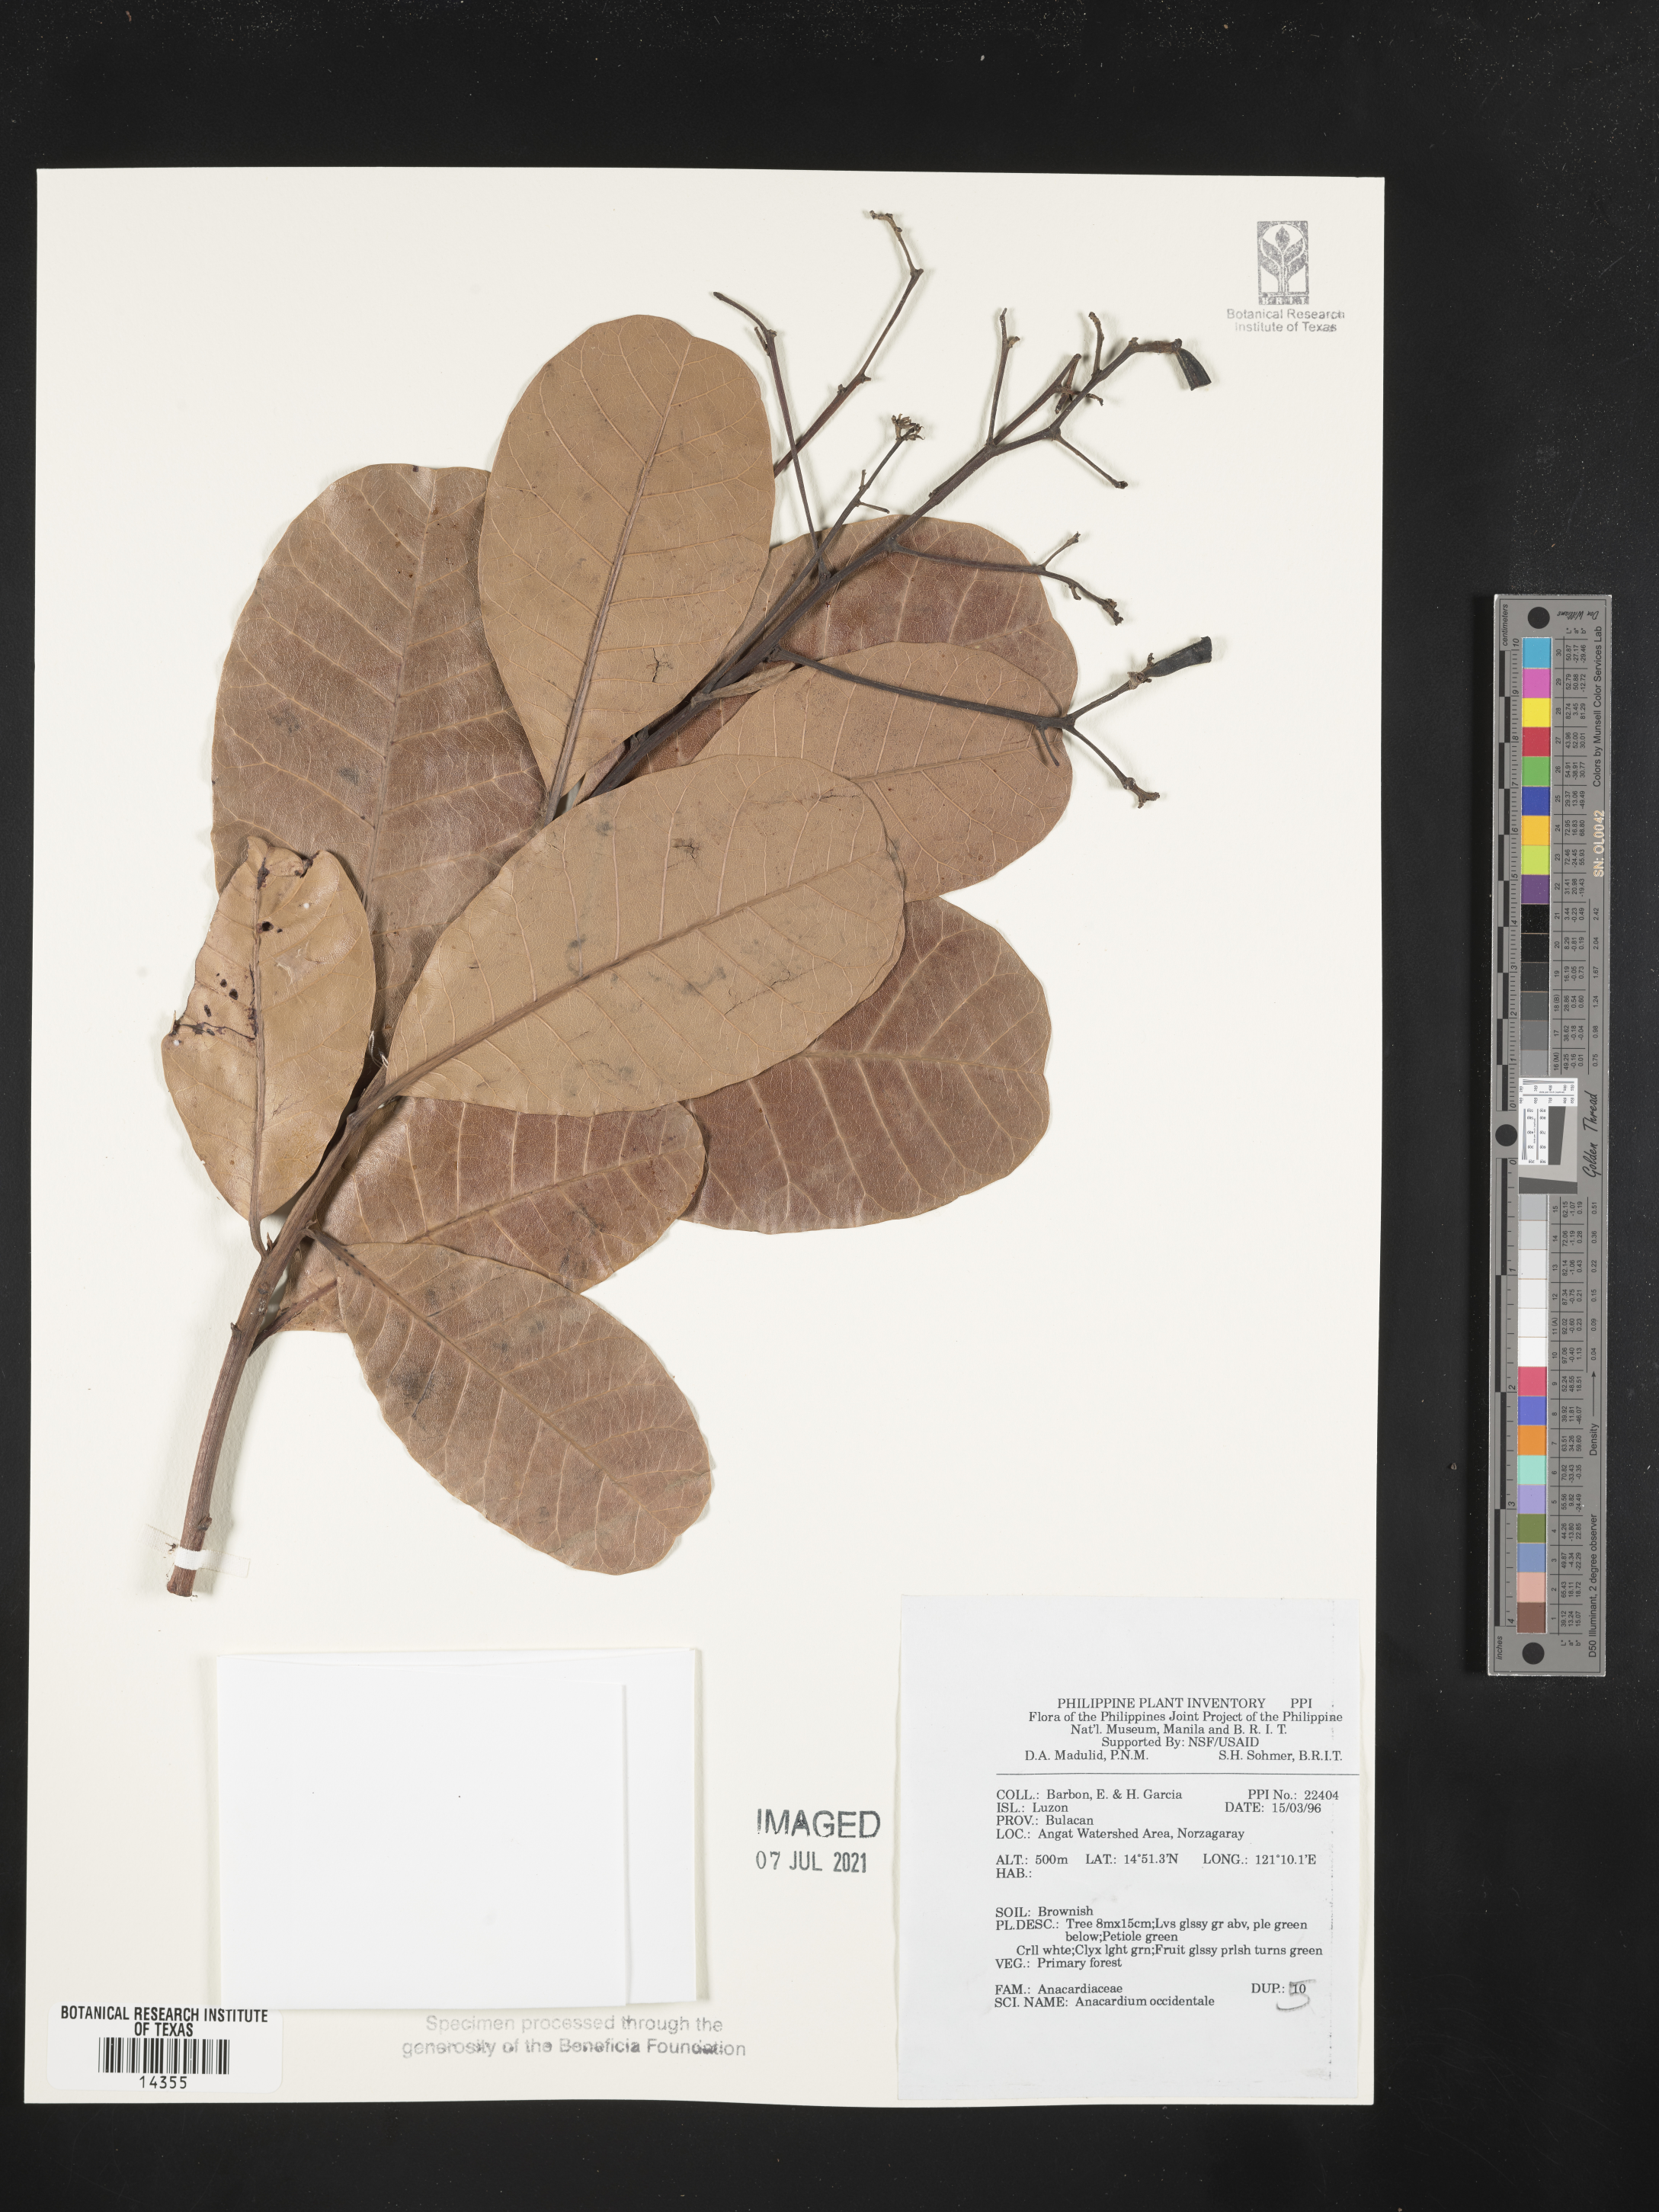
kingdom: Plantae
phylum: Tracheophyta
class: Magnoliopsida
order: Sapindales
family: Anacardiaceae
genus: Anacardium
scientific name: Anacardium occidentale
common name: Cashew
